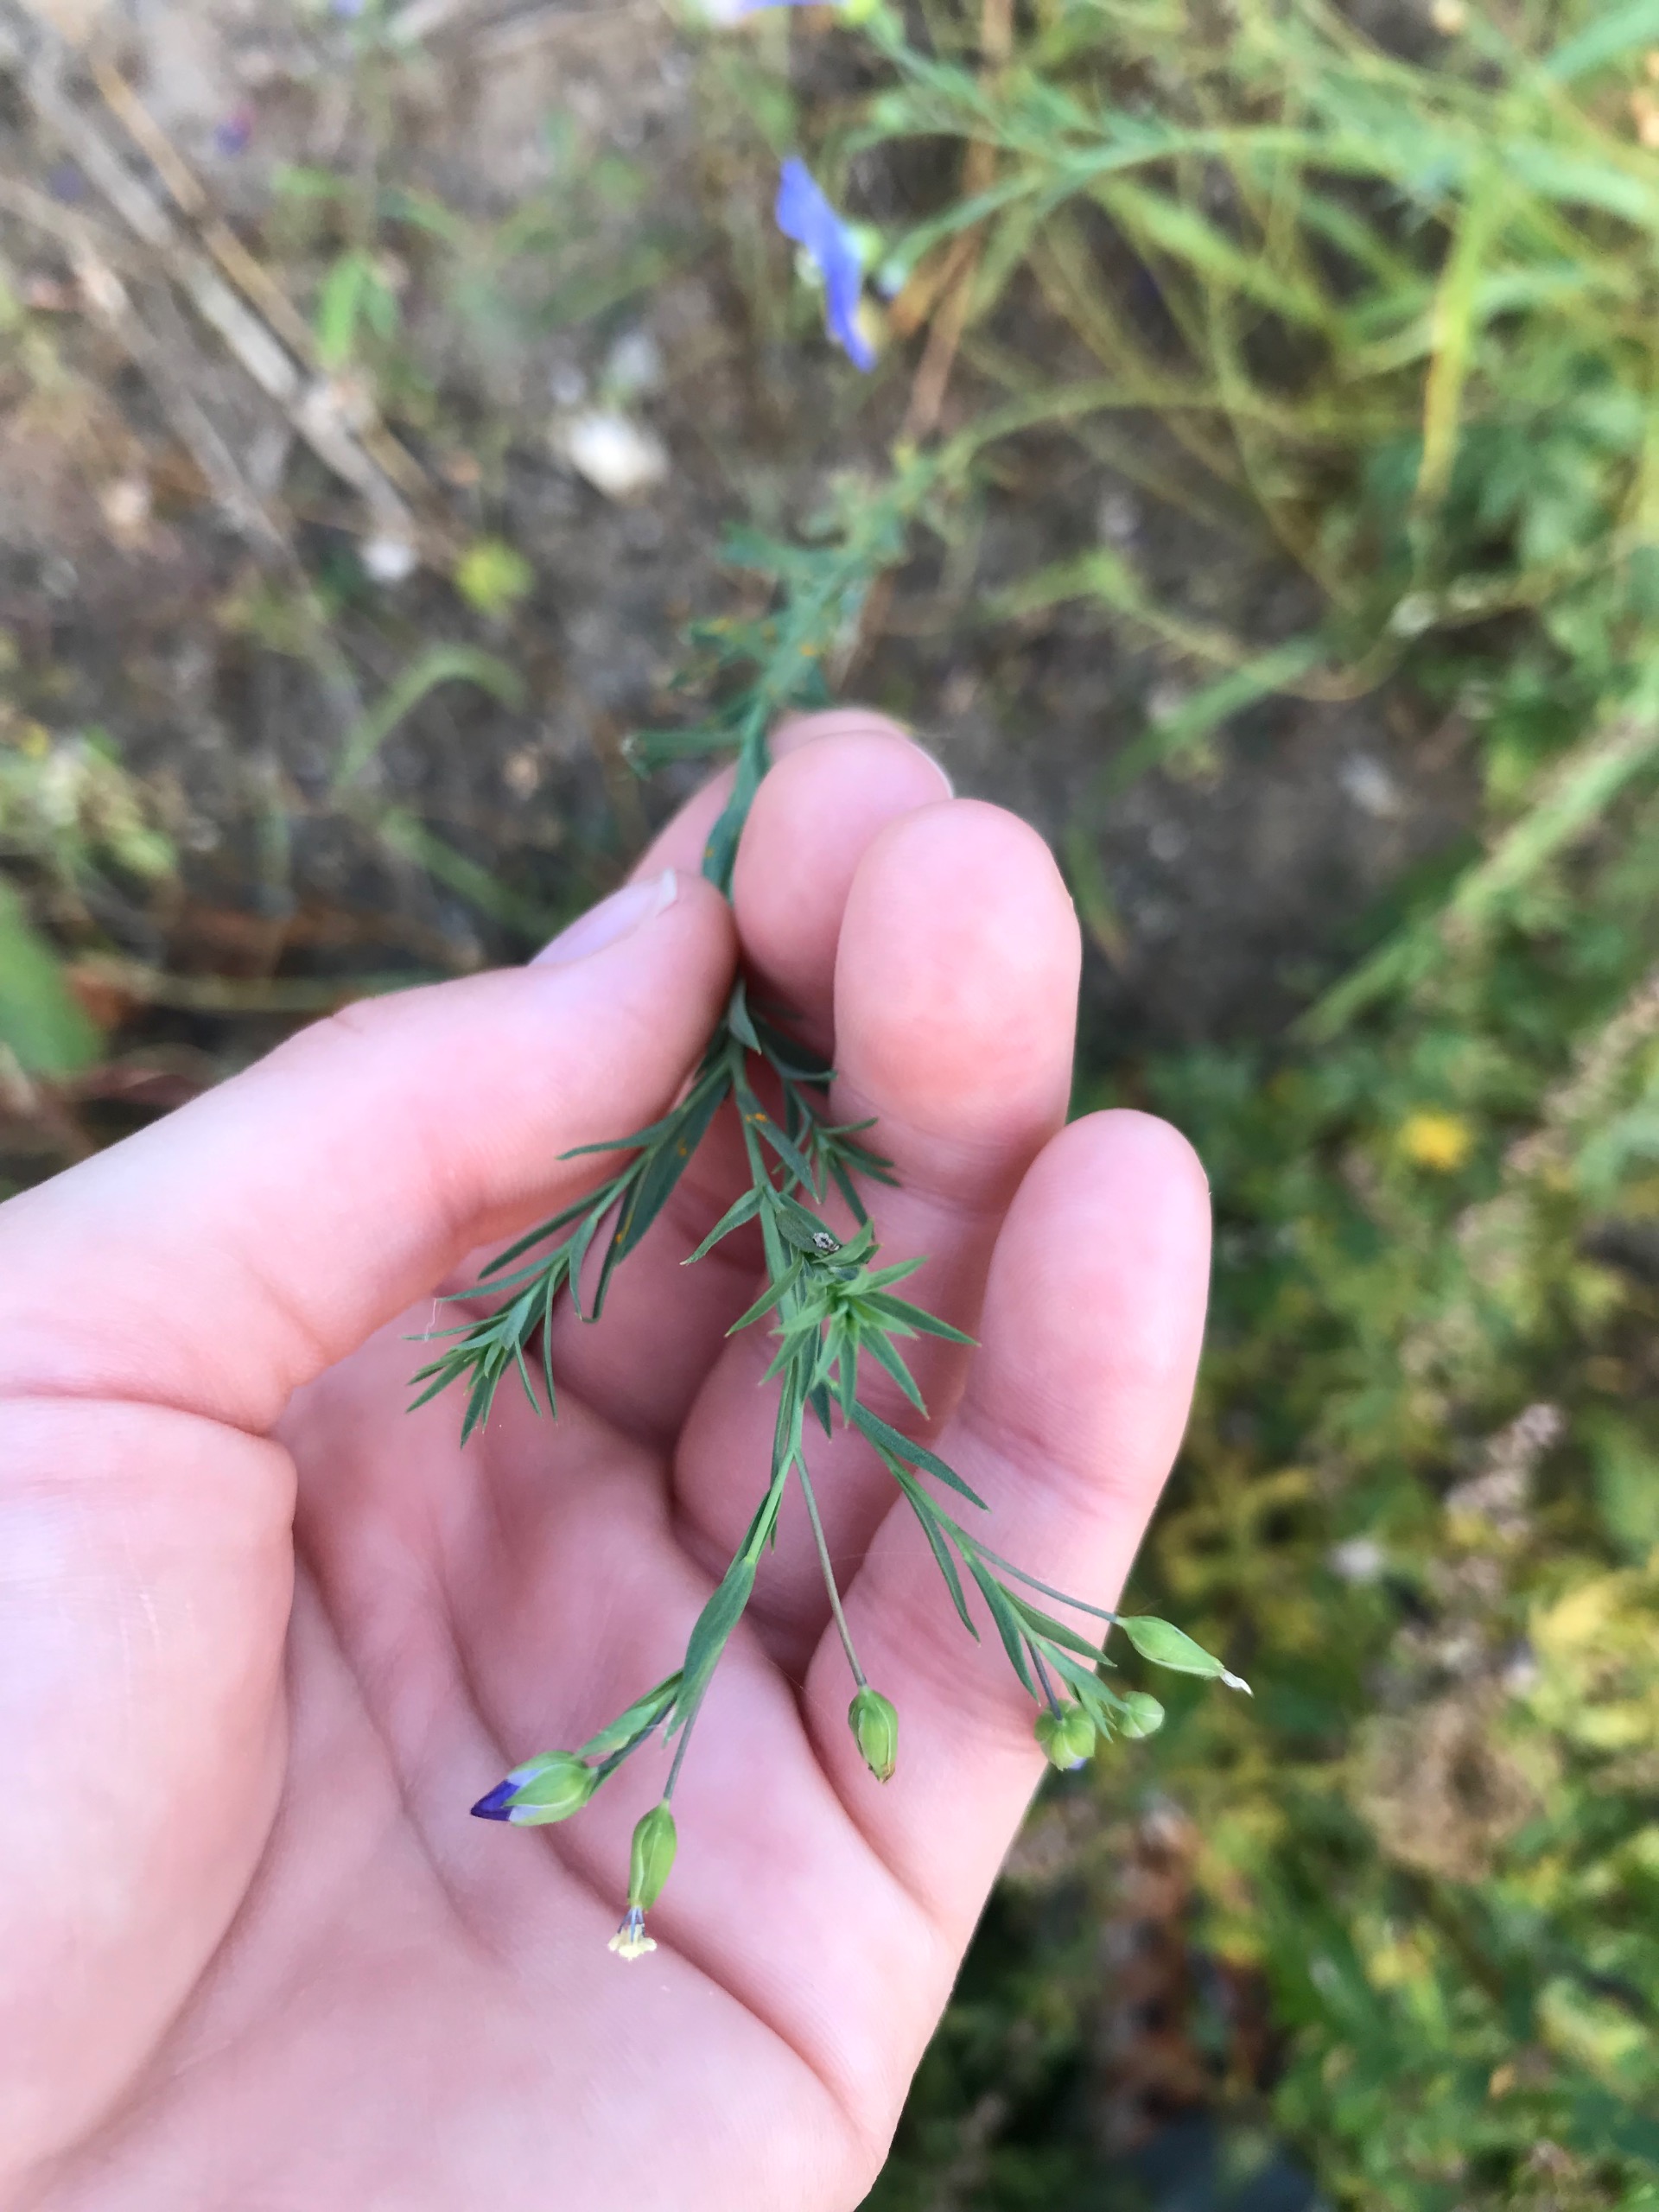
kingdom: Plantae
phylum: Tracheophyta
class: Magnoliopsida
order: Malpighiales
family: Linaceae
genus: Linum
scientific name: Linum austriacum
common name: Østrigsk hør
